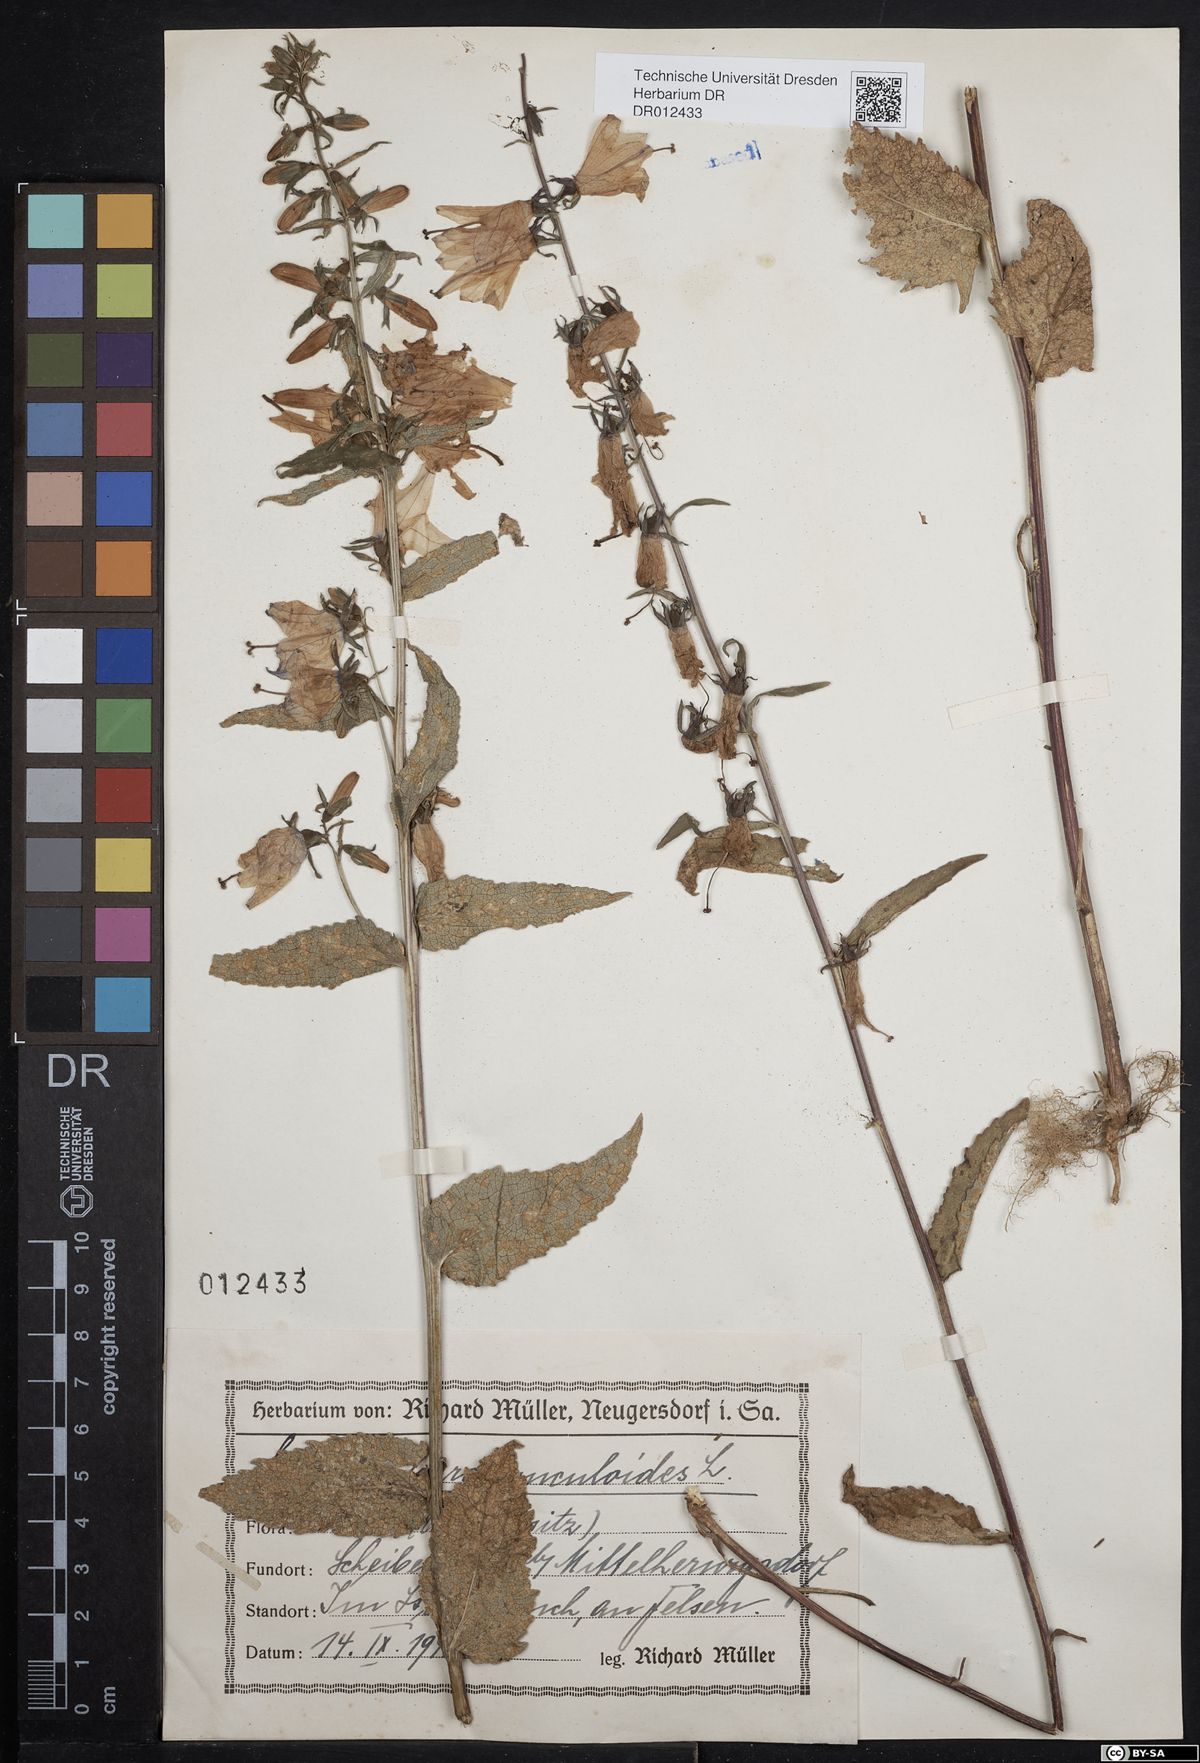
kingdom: Plantae
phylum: Tracheophyta
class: Magnoliopsida
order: Asterales
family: Campanulaceae
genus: Campanula
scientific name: Campanula rapunculoides
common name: Creeping bellflower
